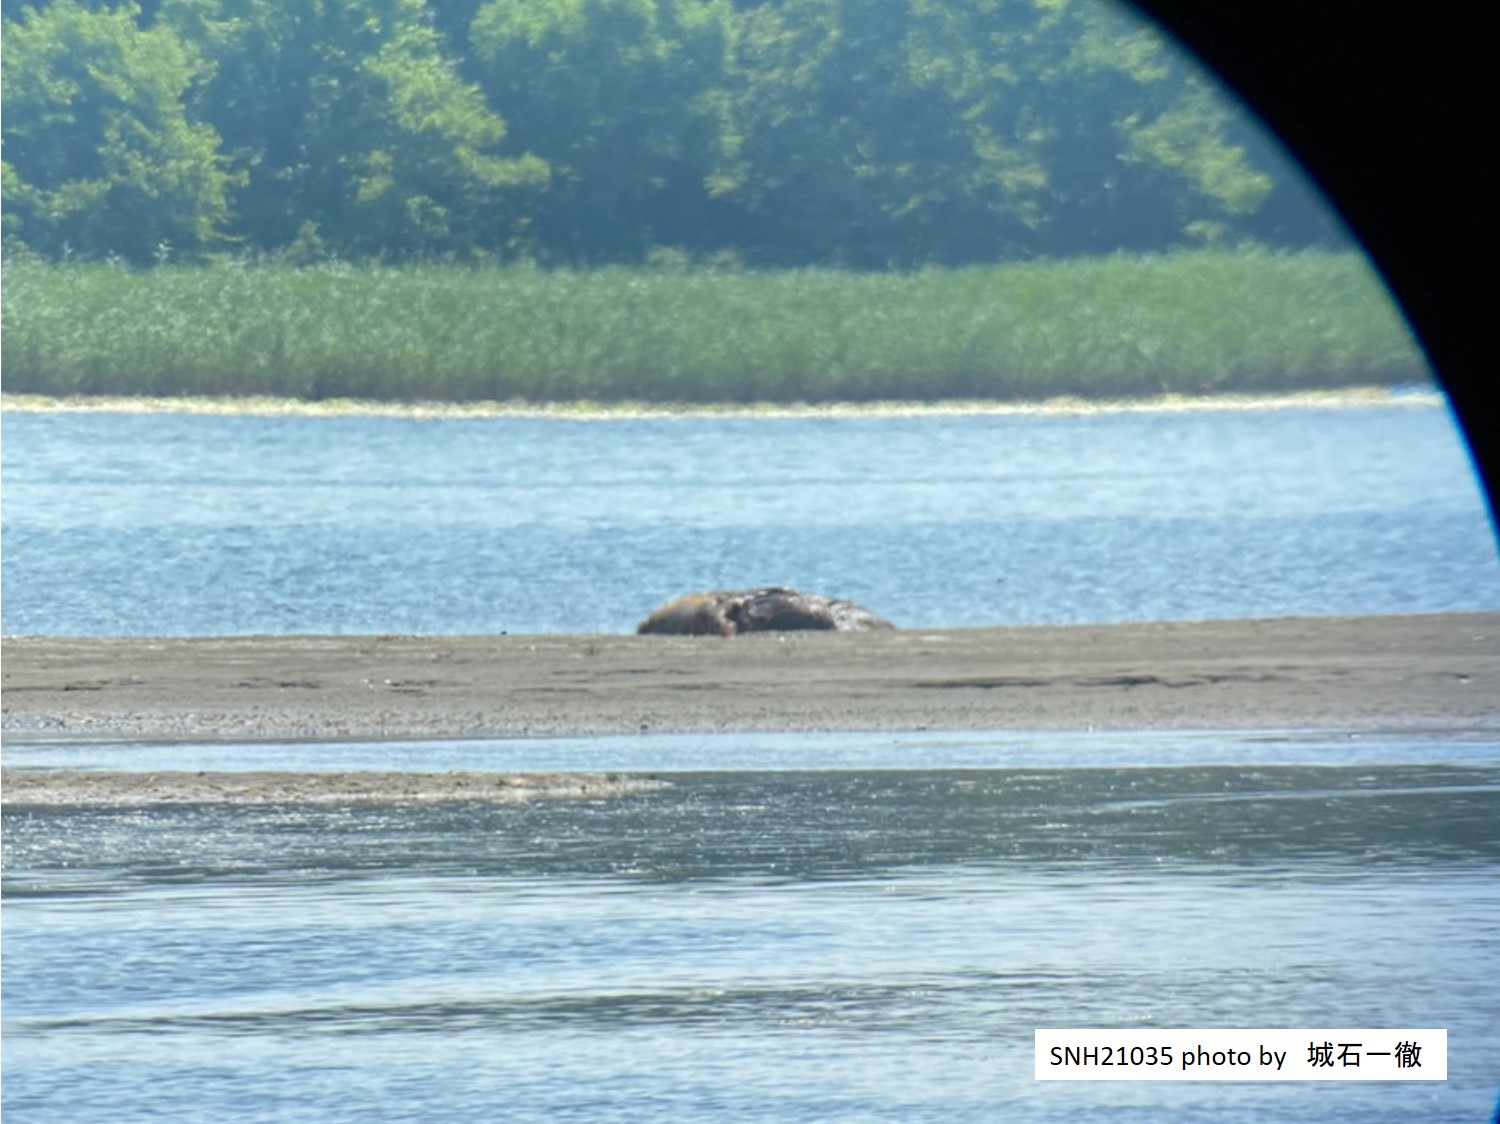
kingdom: Animalia
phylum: Chordata
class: Mammalia
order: Cetacea
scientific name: Cetacea
